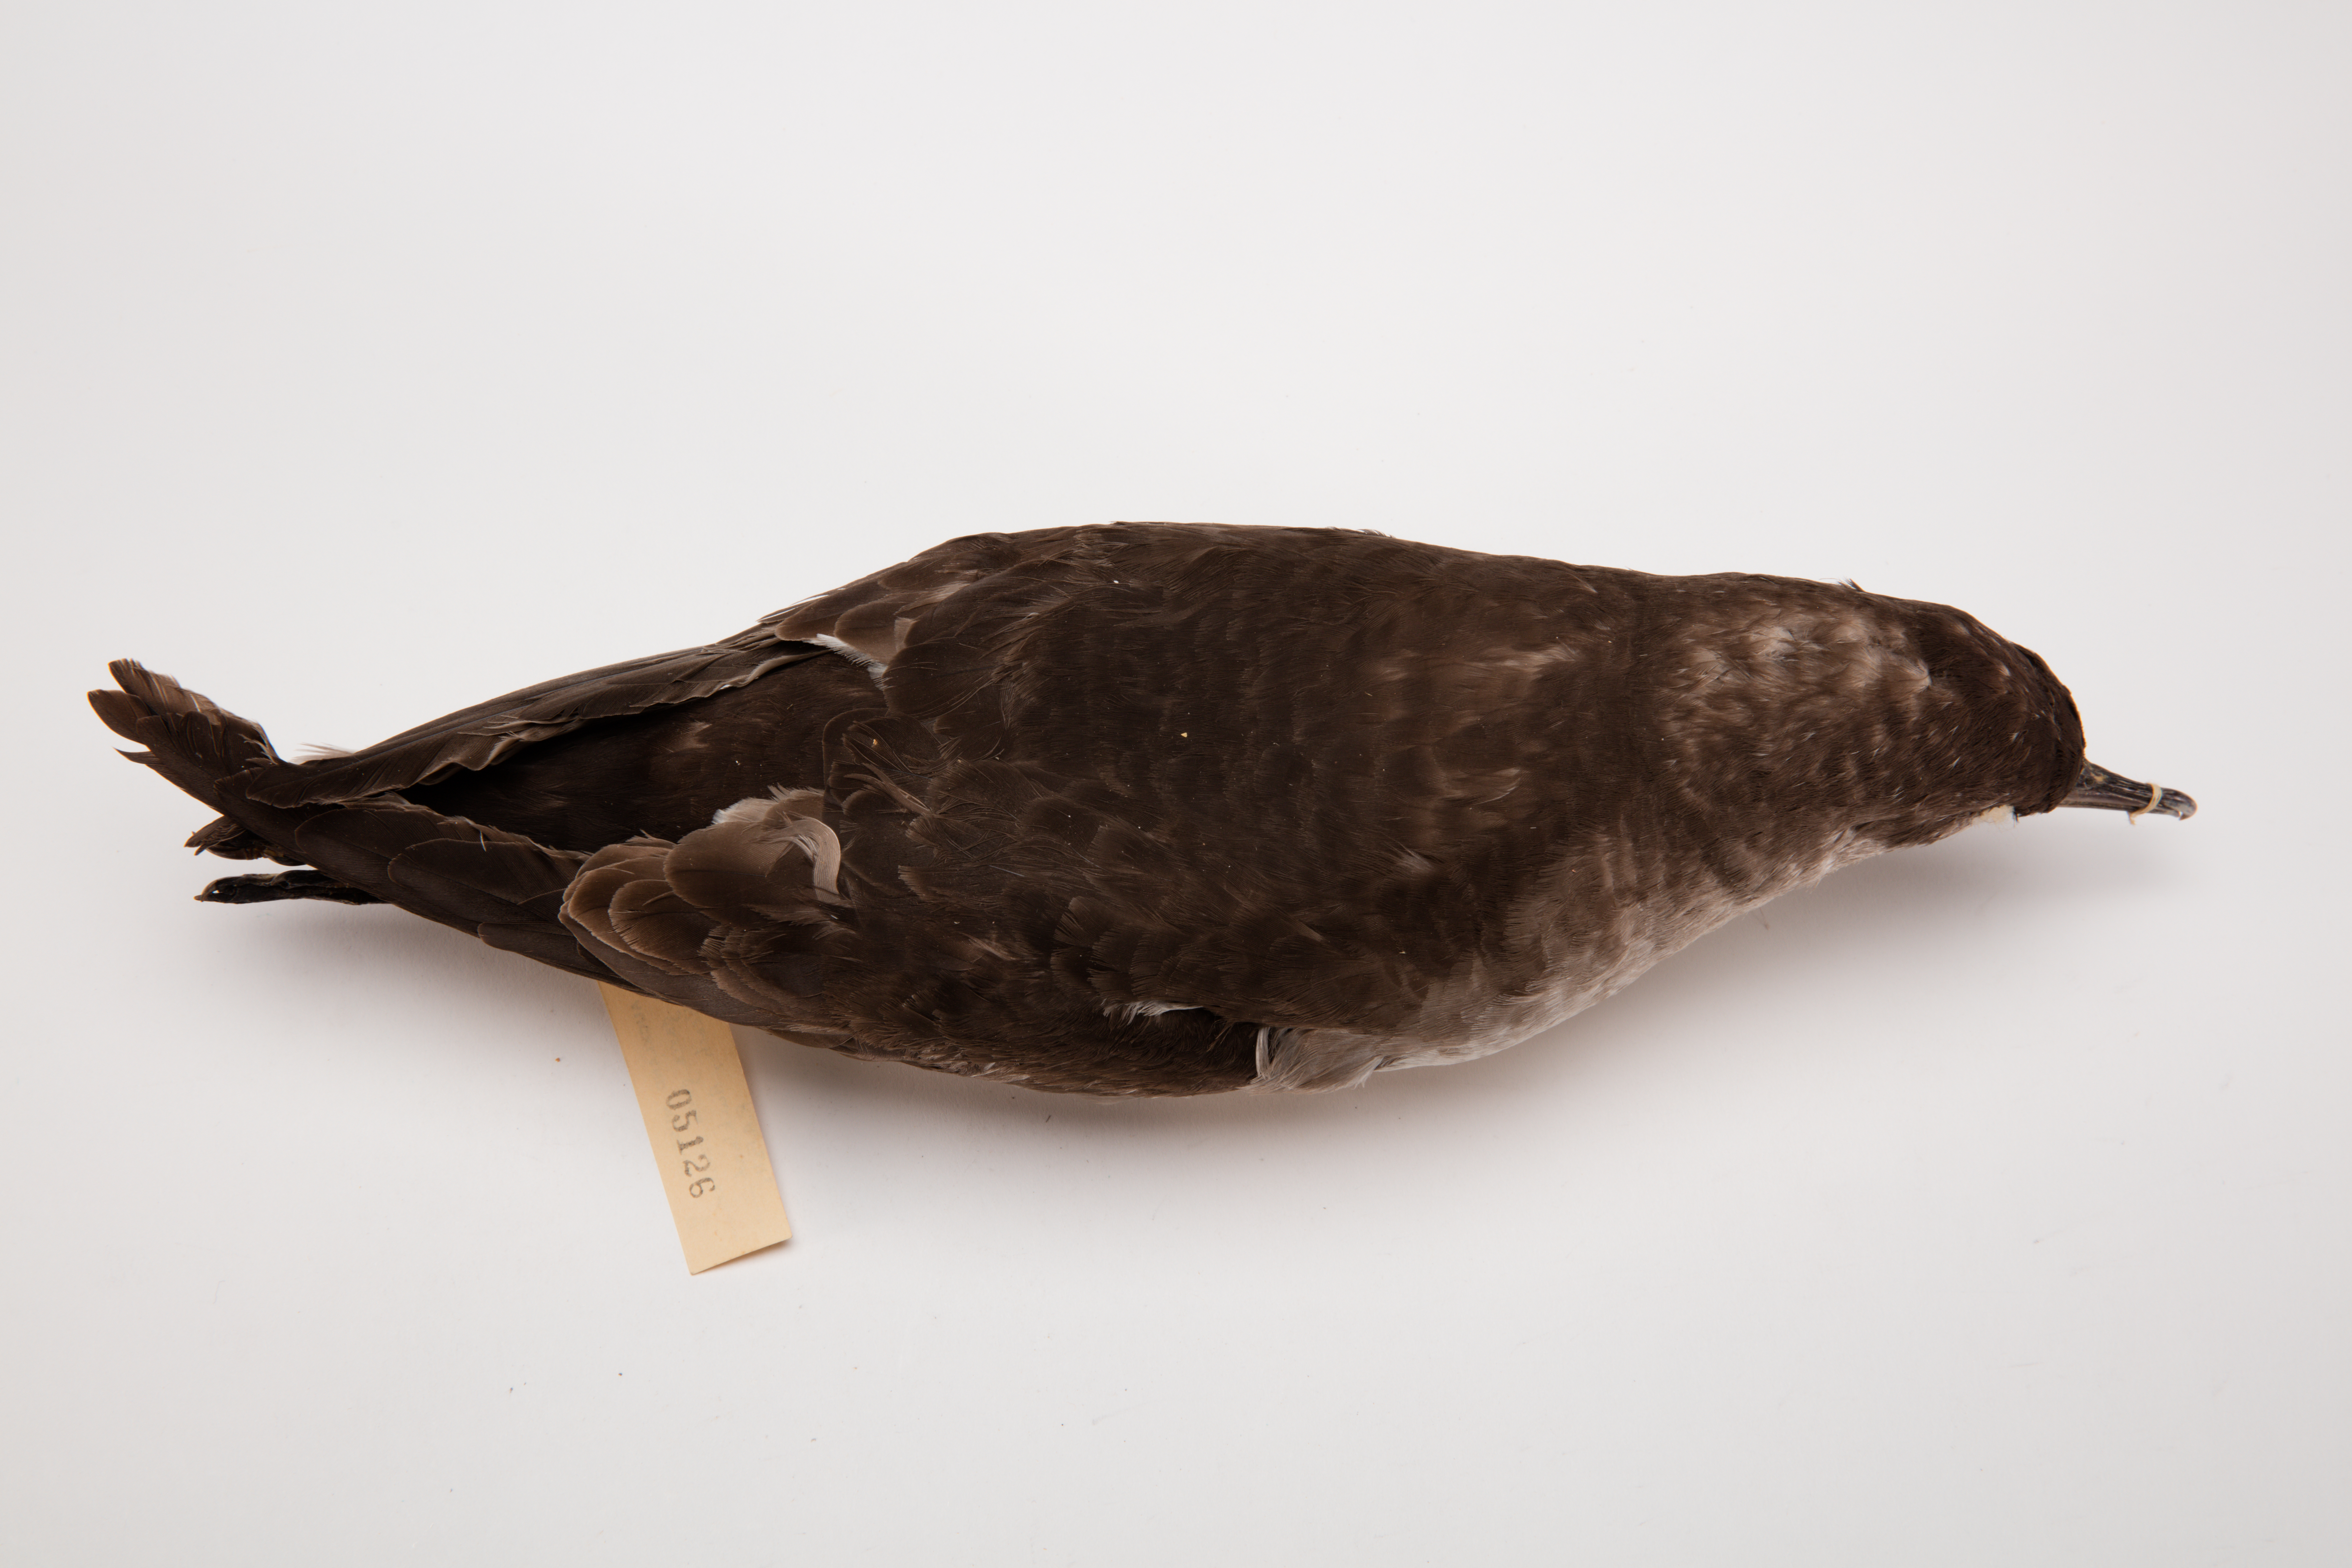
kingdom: Animalia
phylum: Chordata
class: Aves
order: Procellariiformes
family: Procellariidae
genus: Ardenna
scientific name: Ardenna
